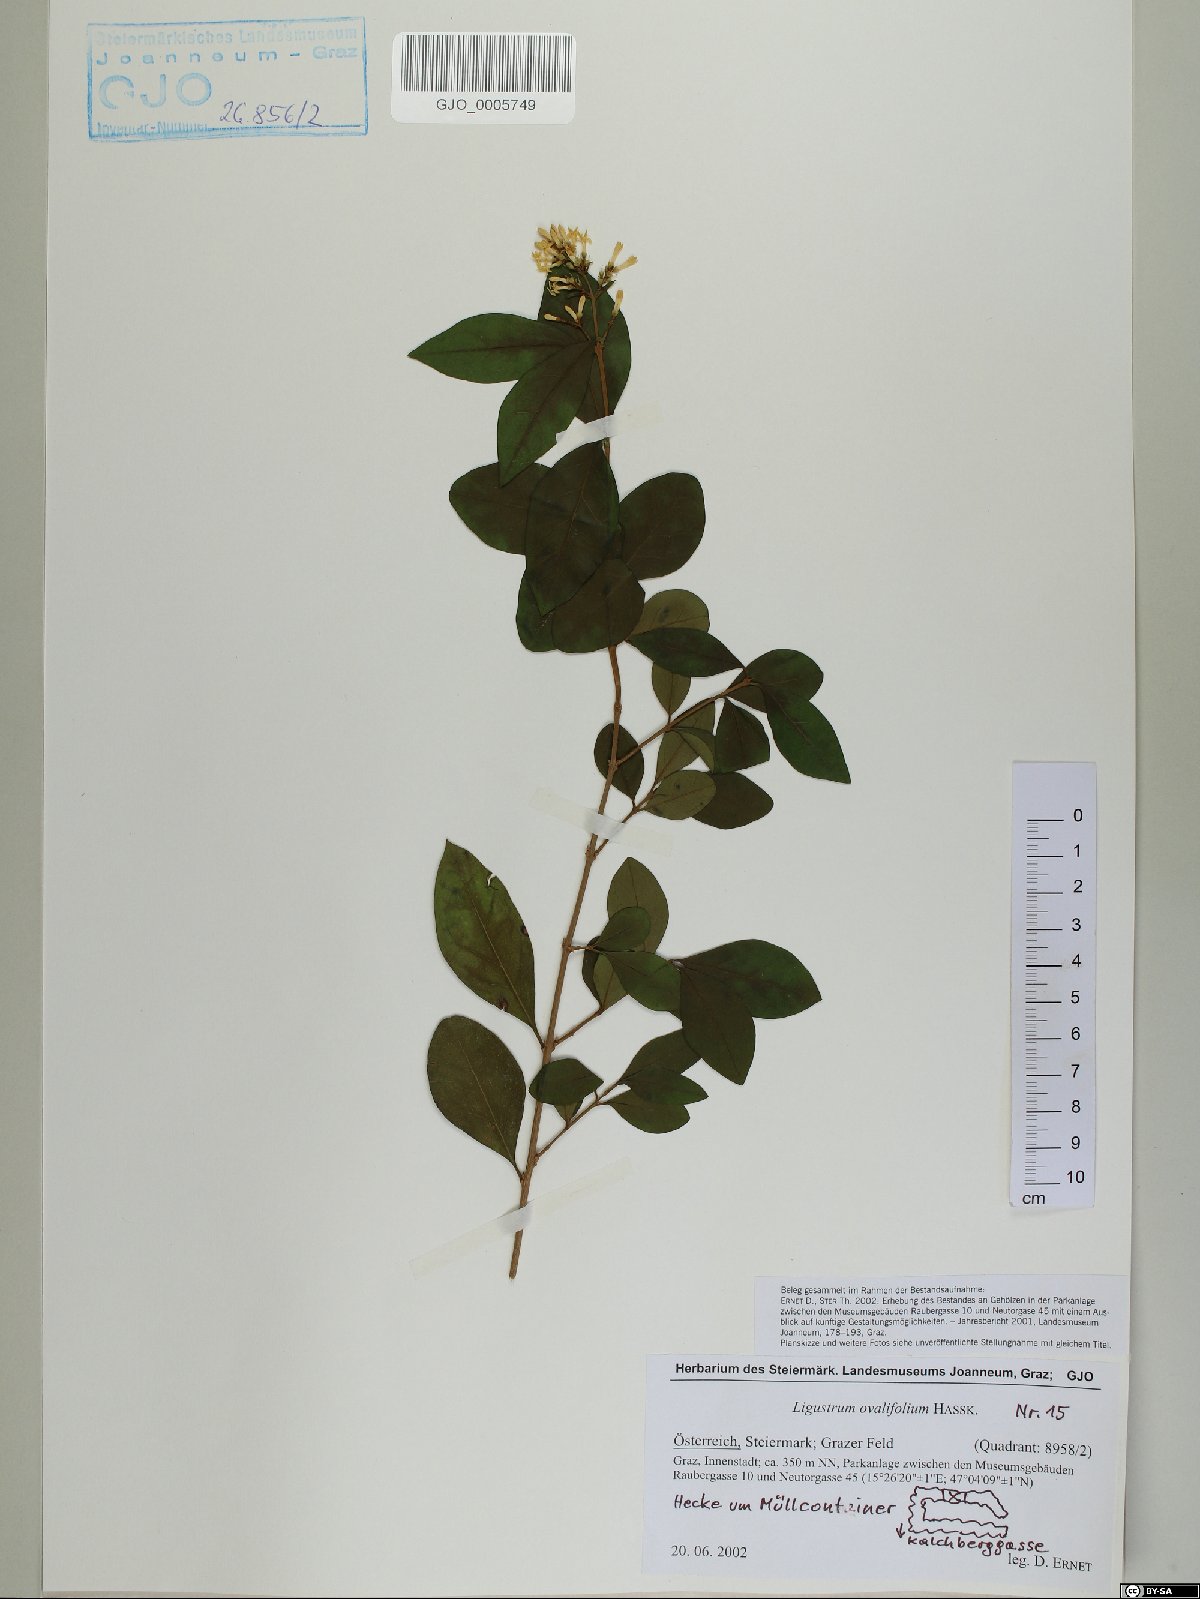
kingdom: Plantae
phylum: Tracheophyta
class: Magnoliopsida
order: Lamiales
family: Oleaceae
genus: Ligustrum
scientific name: Ligustrum ovalifolium
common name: California privet
